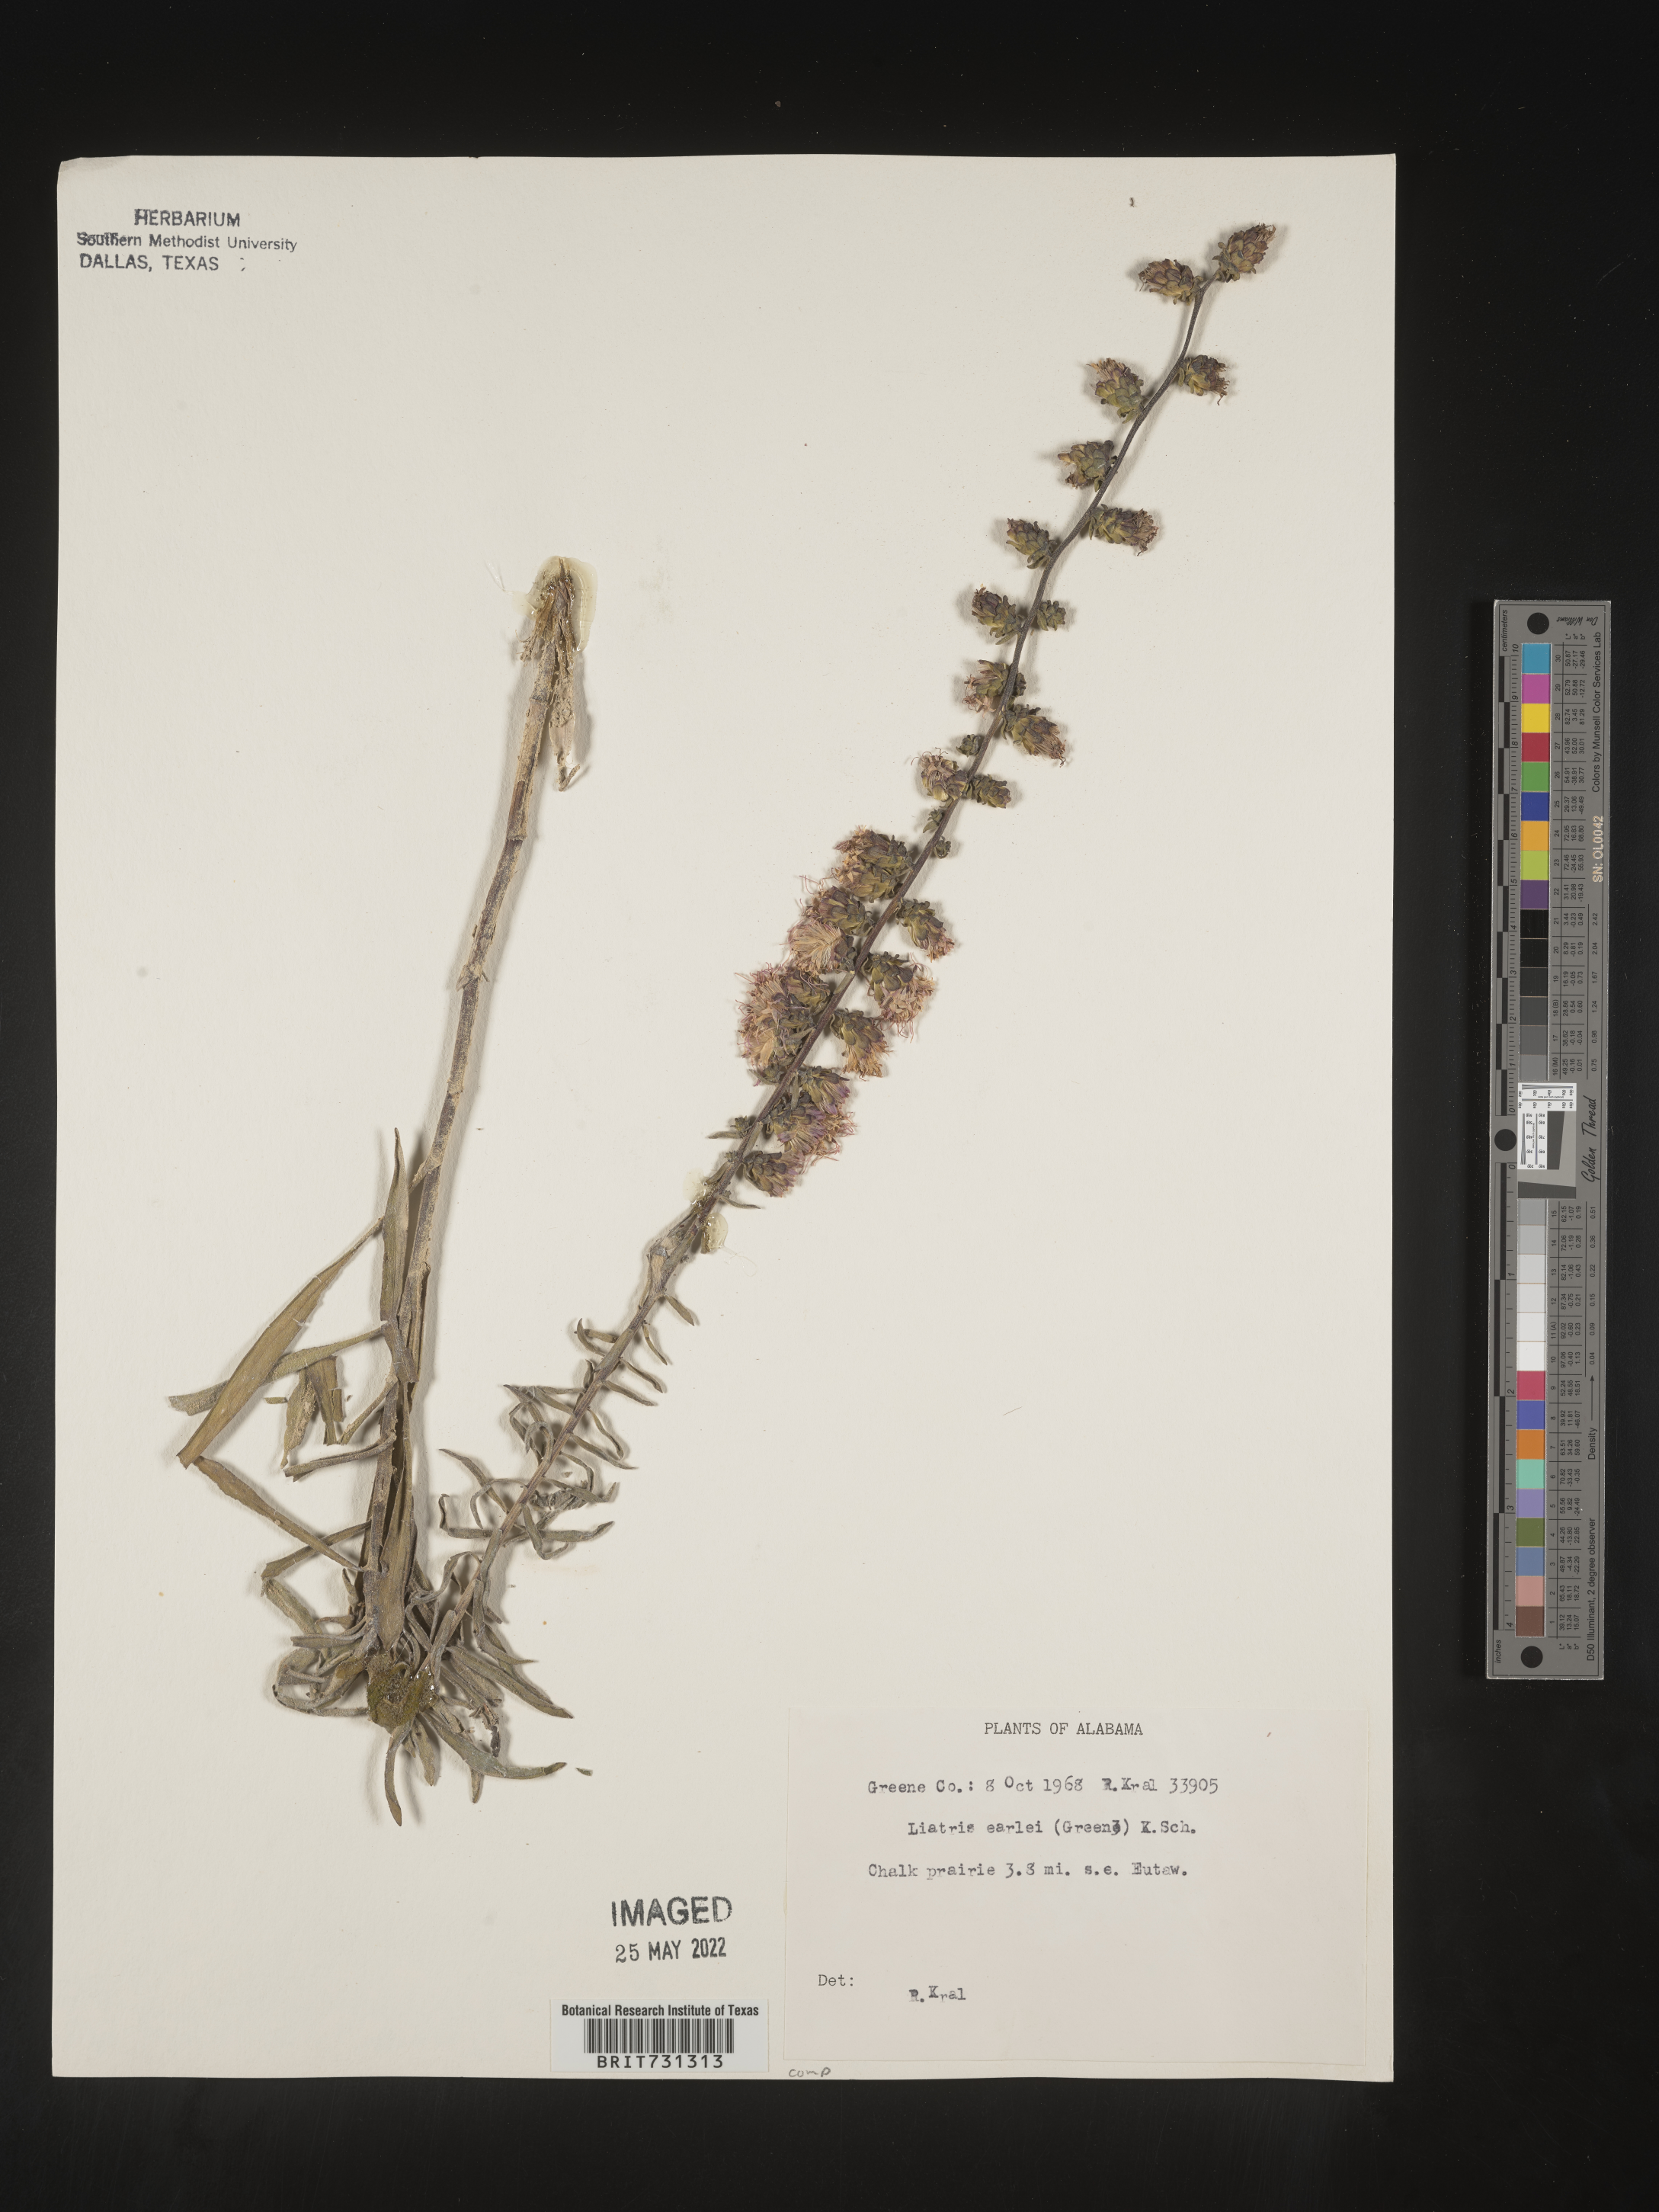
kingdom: Plantae
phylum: Tracheophyta
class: Magnoliopsida
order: Asterales
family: Asteraceae
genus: Liatris
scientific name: Liatris squarrulosa
